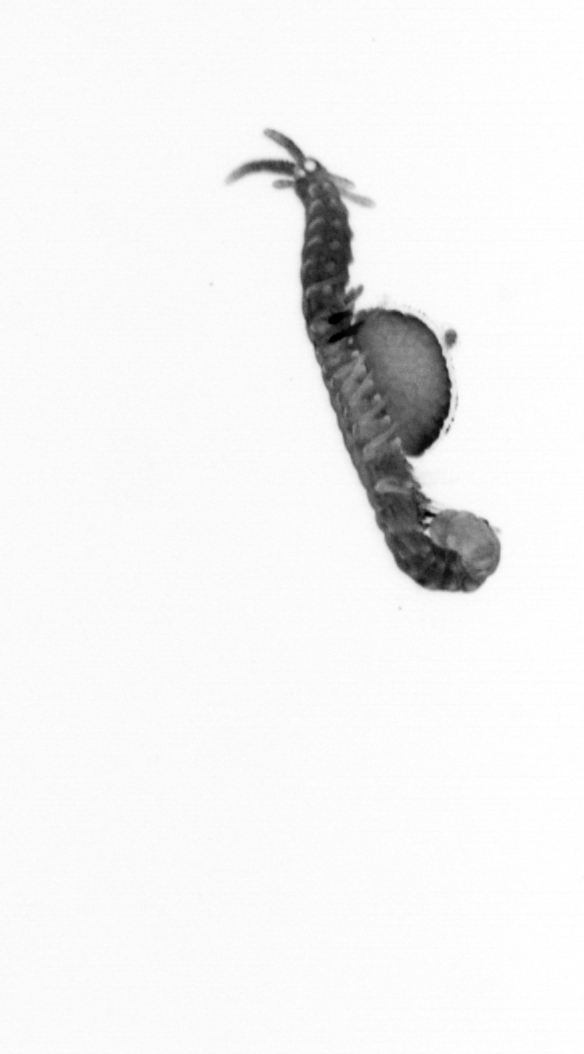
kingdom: Animalia
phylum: Annelida
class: Polychaeta
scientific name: Polychaeta
